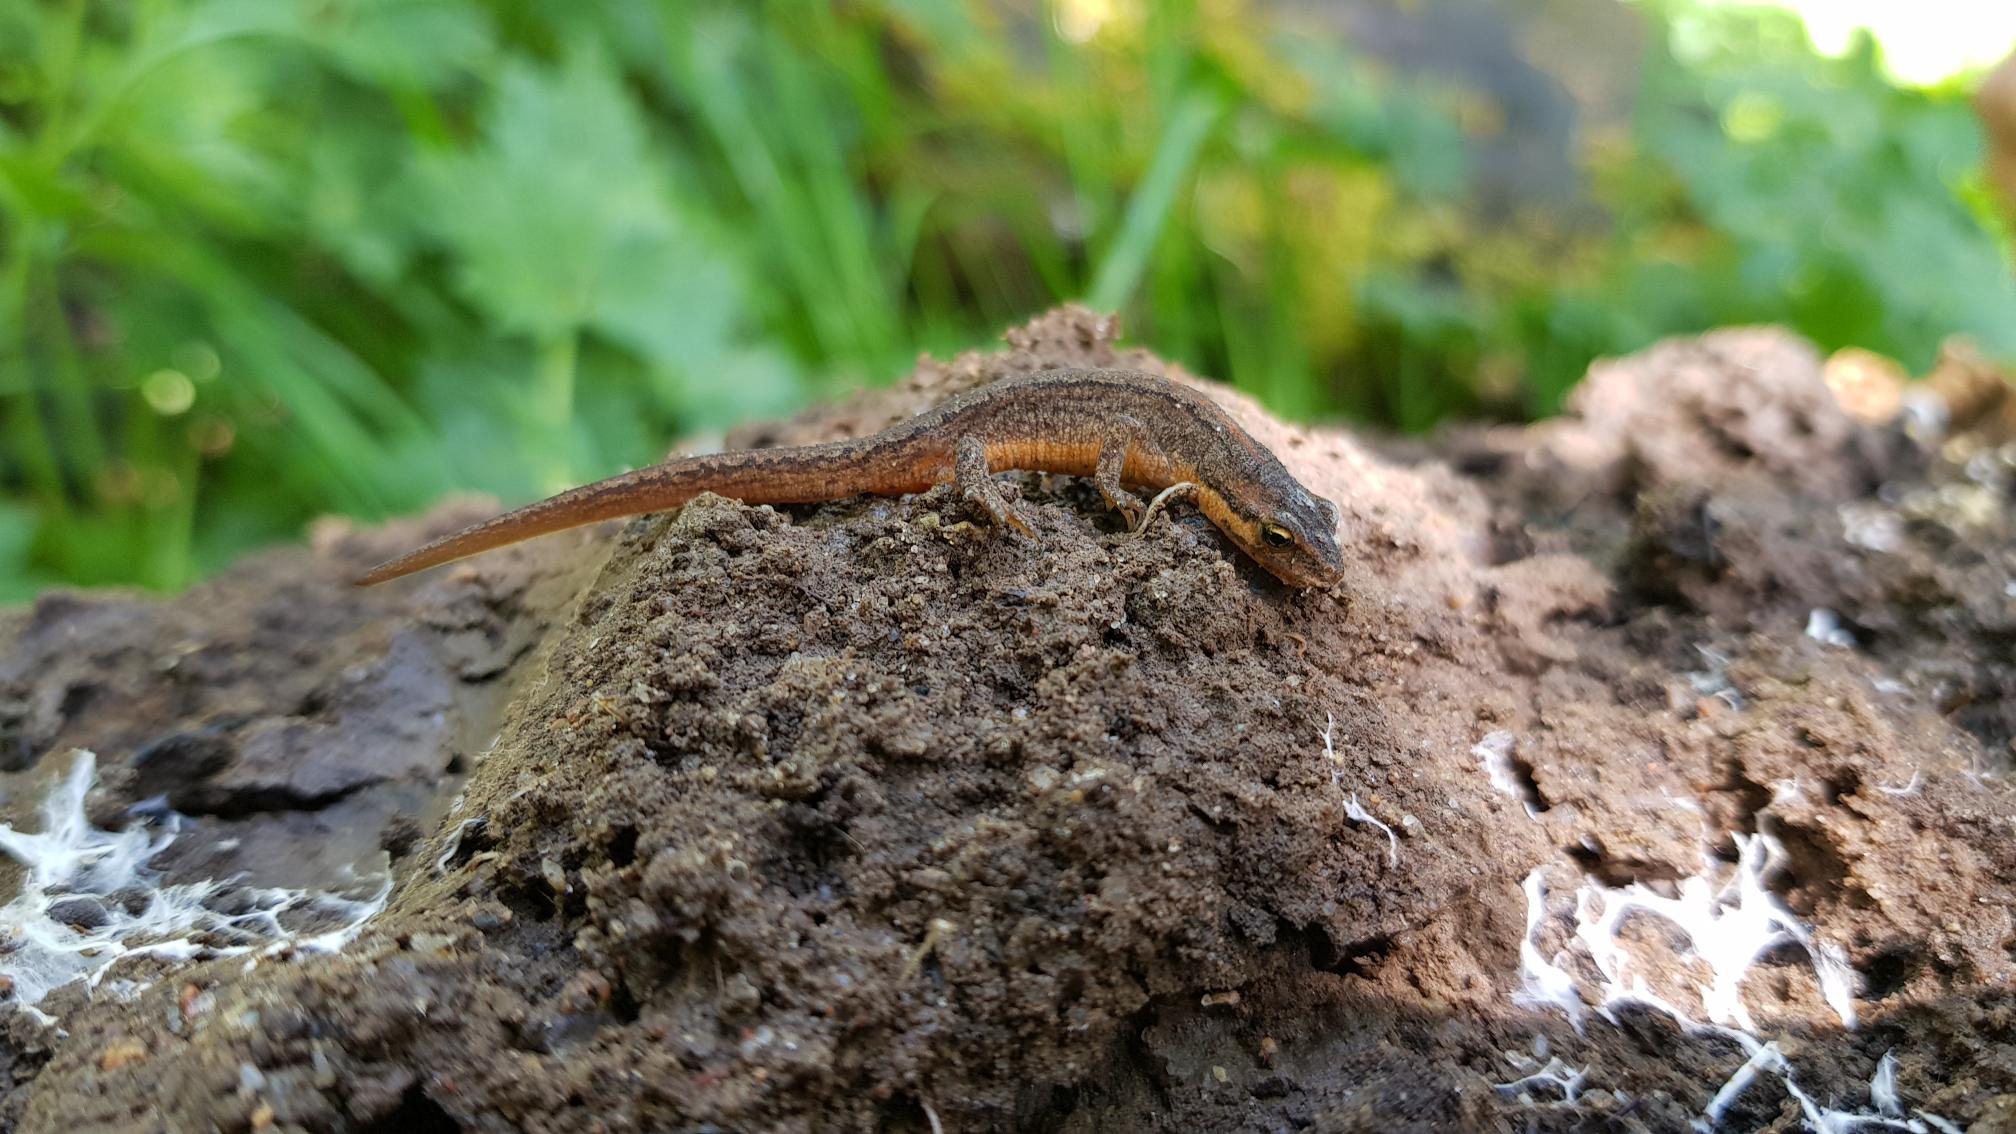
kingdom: Animalia
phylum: Chordata
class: Amphibia
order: Caudata
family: Salamandridae
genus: Lissotriton
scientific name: Lissotriton vulgaris
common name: Lille vandsalamander
